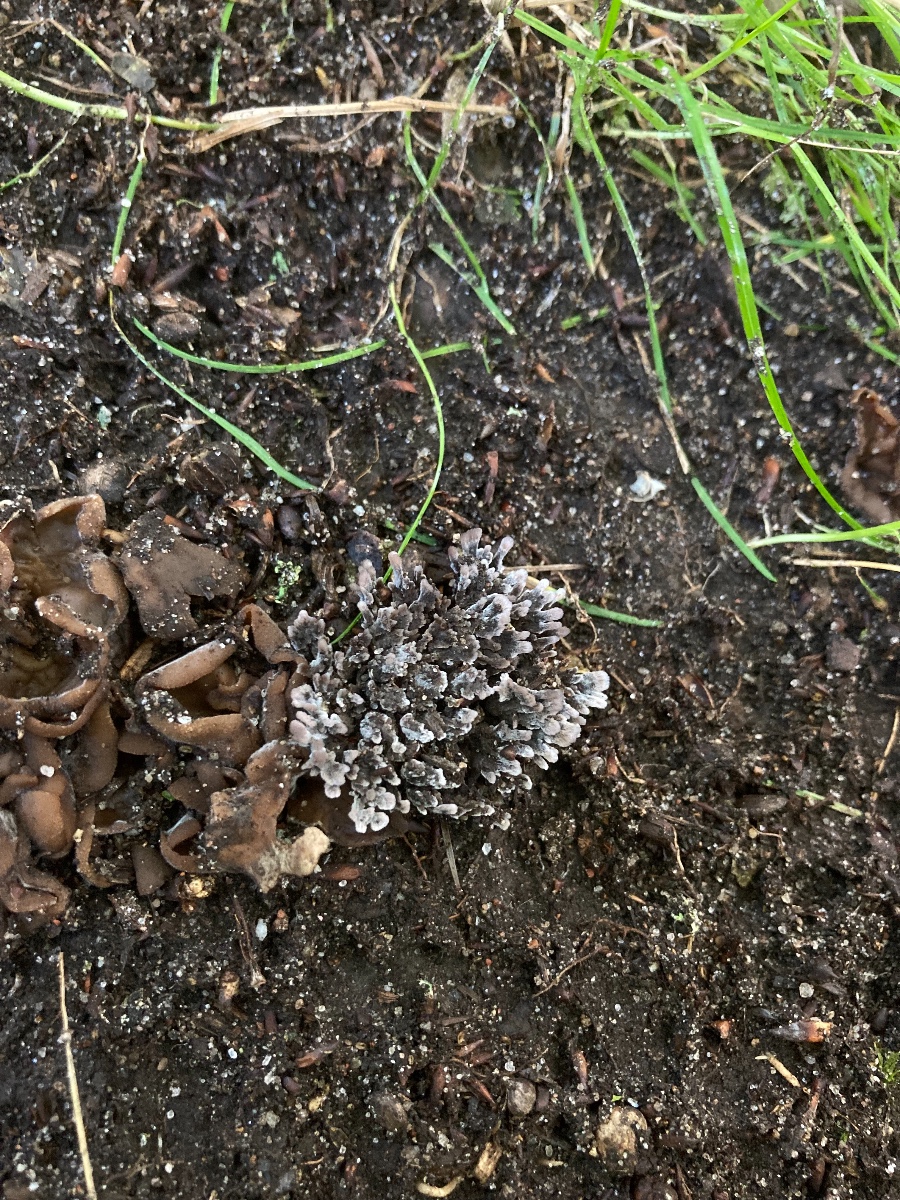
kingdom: Fungi
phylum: Basidiomycota
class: Agaricomycetes
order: Thelephorales
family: Thelephoraceae
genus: Thelephora
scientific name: Thelephora anthocephala
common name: busk-frynsesvamp
